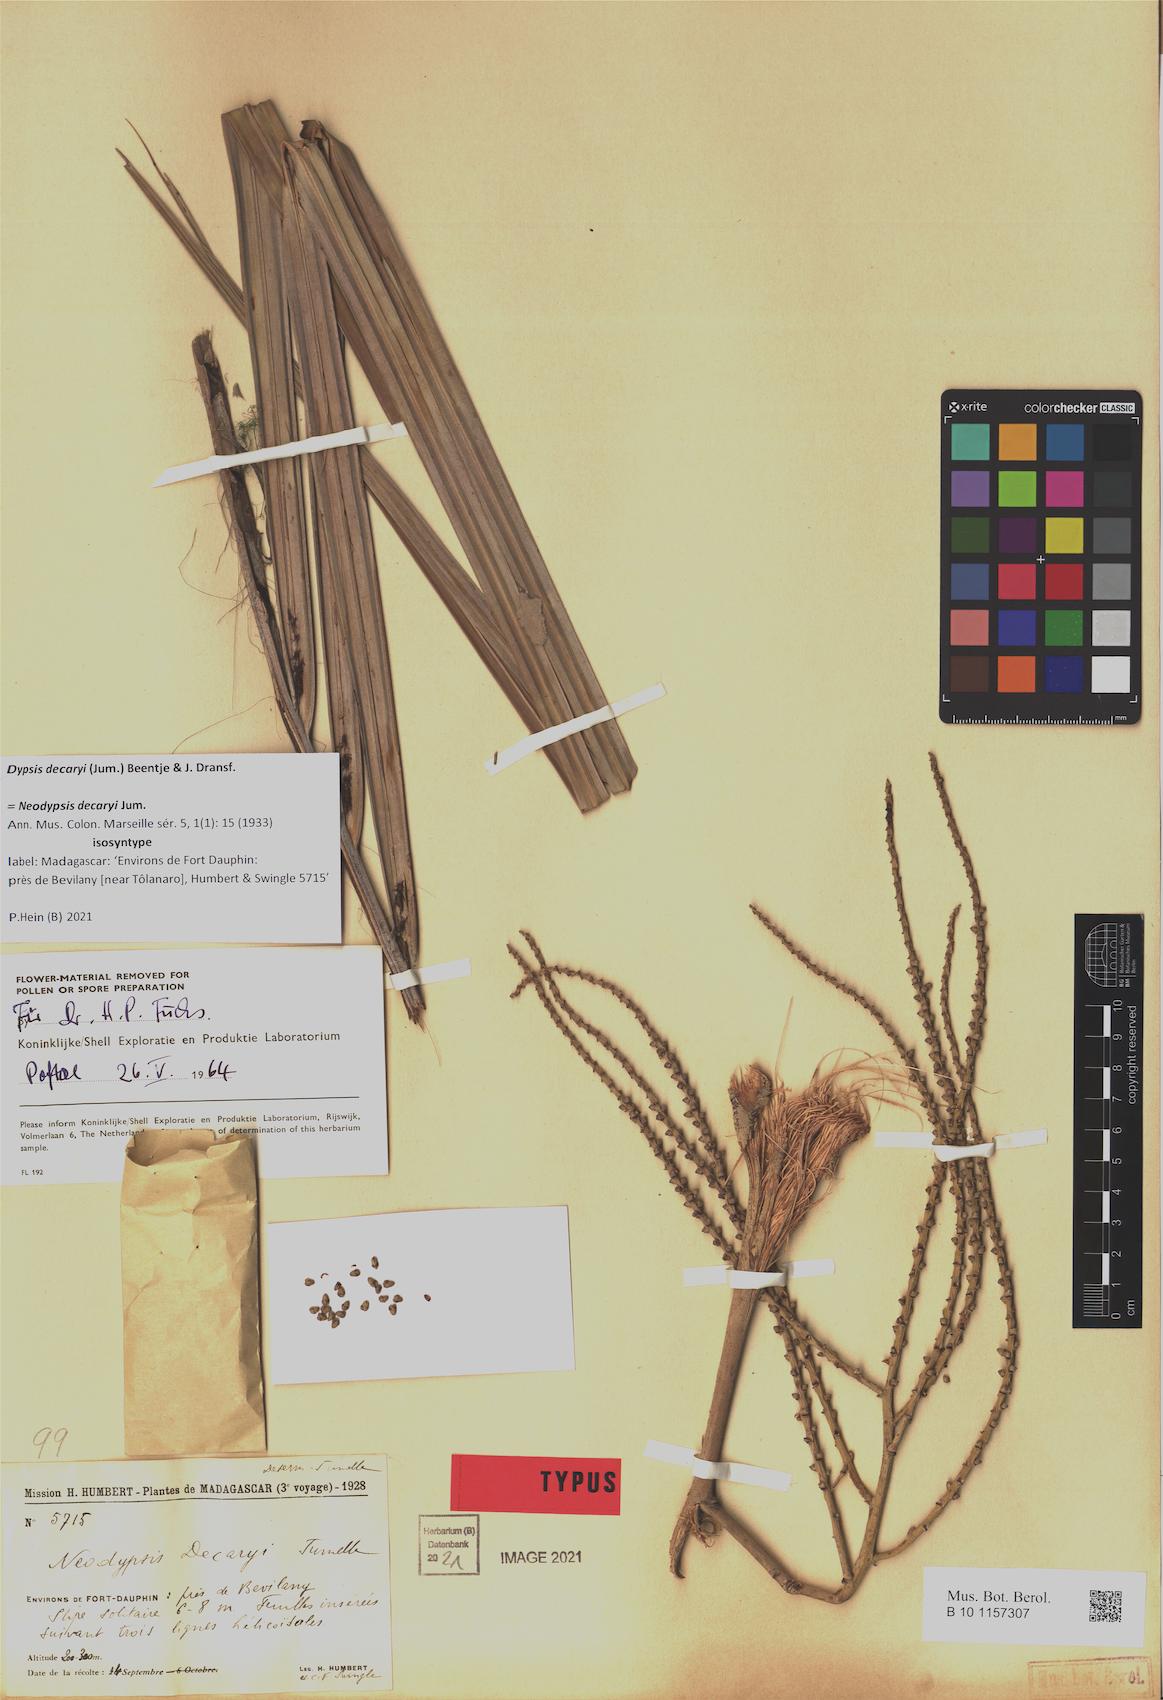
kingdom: Plantae
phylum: Tracheophyta
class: Liliopsida
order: Arecales
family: Arecaceae
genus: Dypsis
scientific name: Dypsis decaryi
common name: Triangle palm
